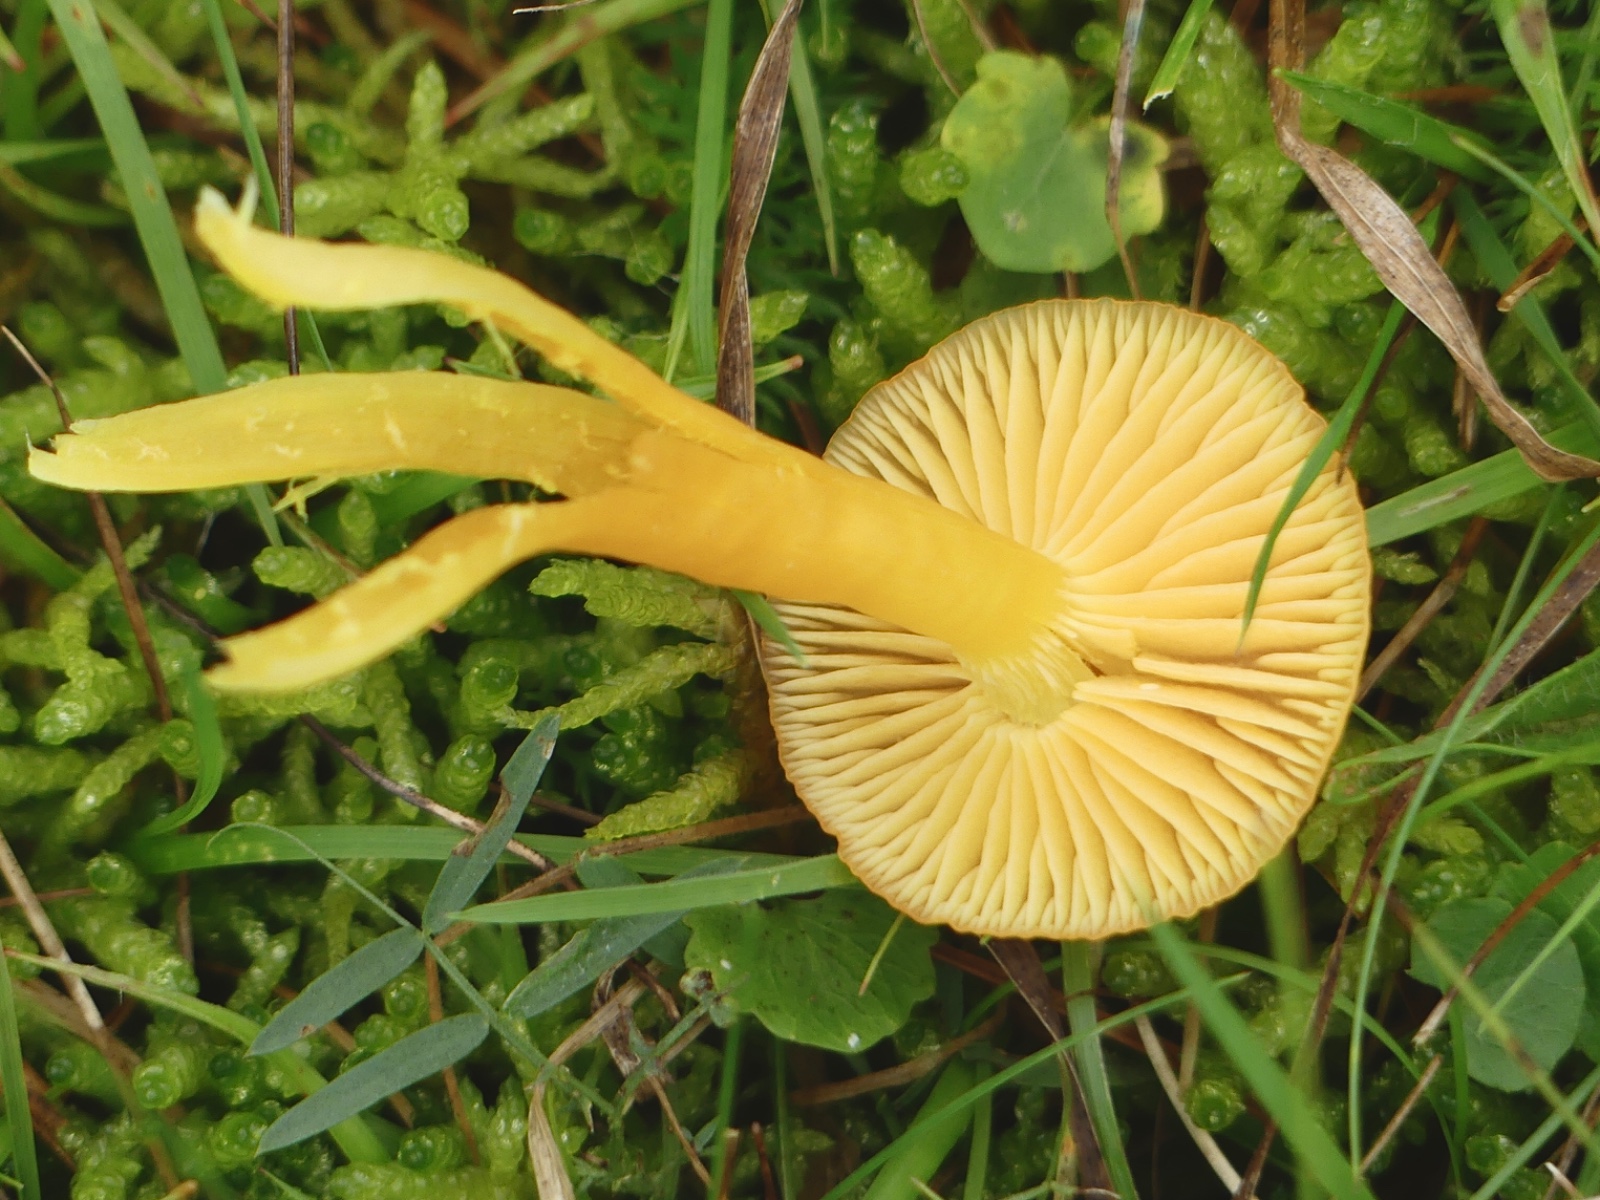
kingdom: Fungi
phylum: Basidiomycota
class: Agaricomycetes
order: Agaricales
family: Hygrophoraceae
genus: Hygrocybe
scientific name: Hygrocybe ceracea
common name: voksgul vokshat
